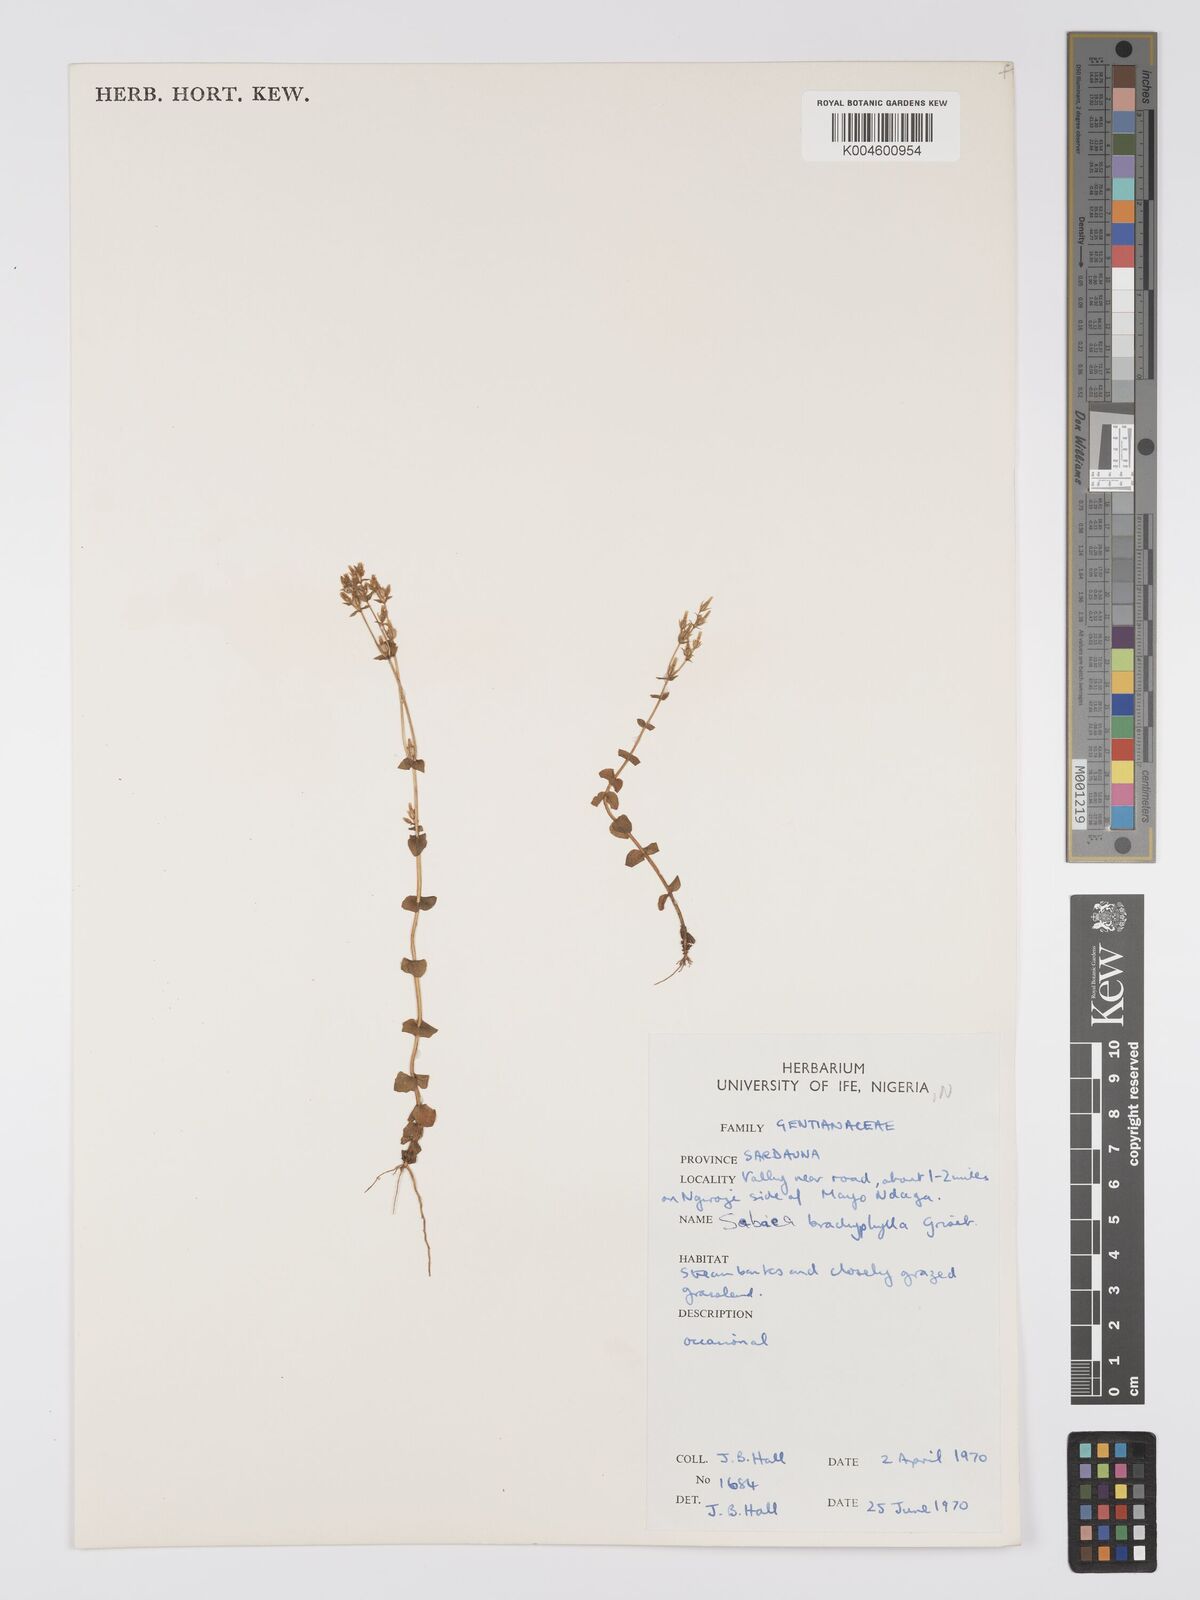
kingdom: Plantae
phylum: Tracheophyta
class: Magnoliopsida
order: Gentianales
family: Gentianaceae
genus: Sebaea
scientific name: Sebaea brachyphylla
